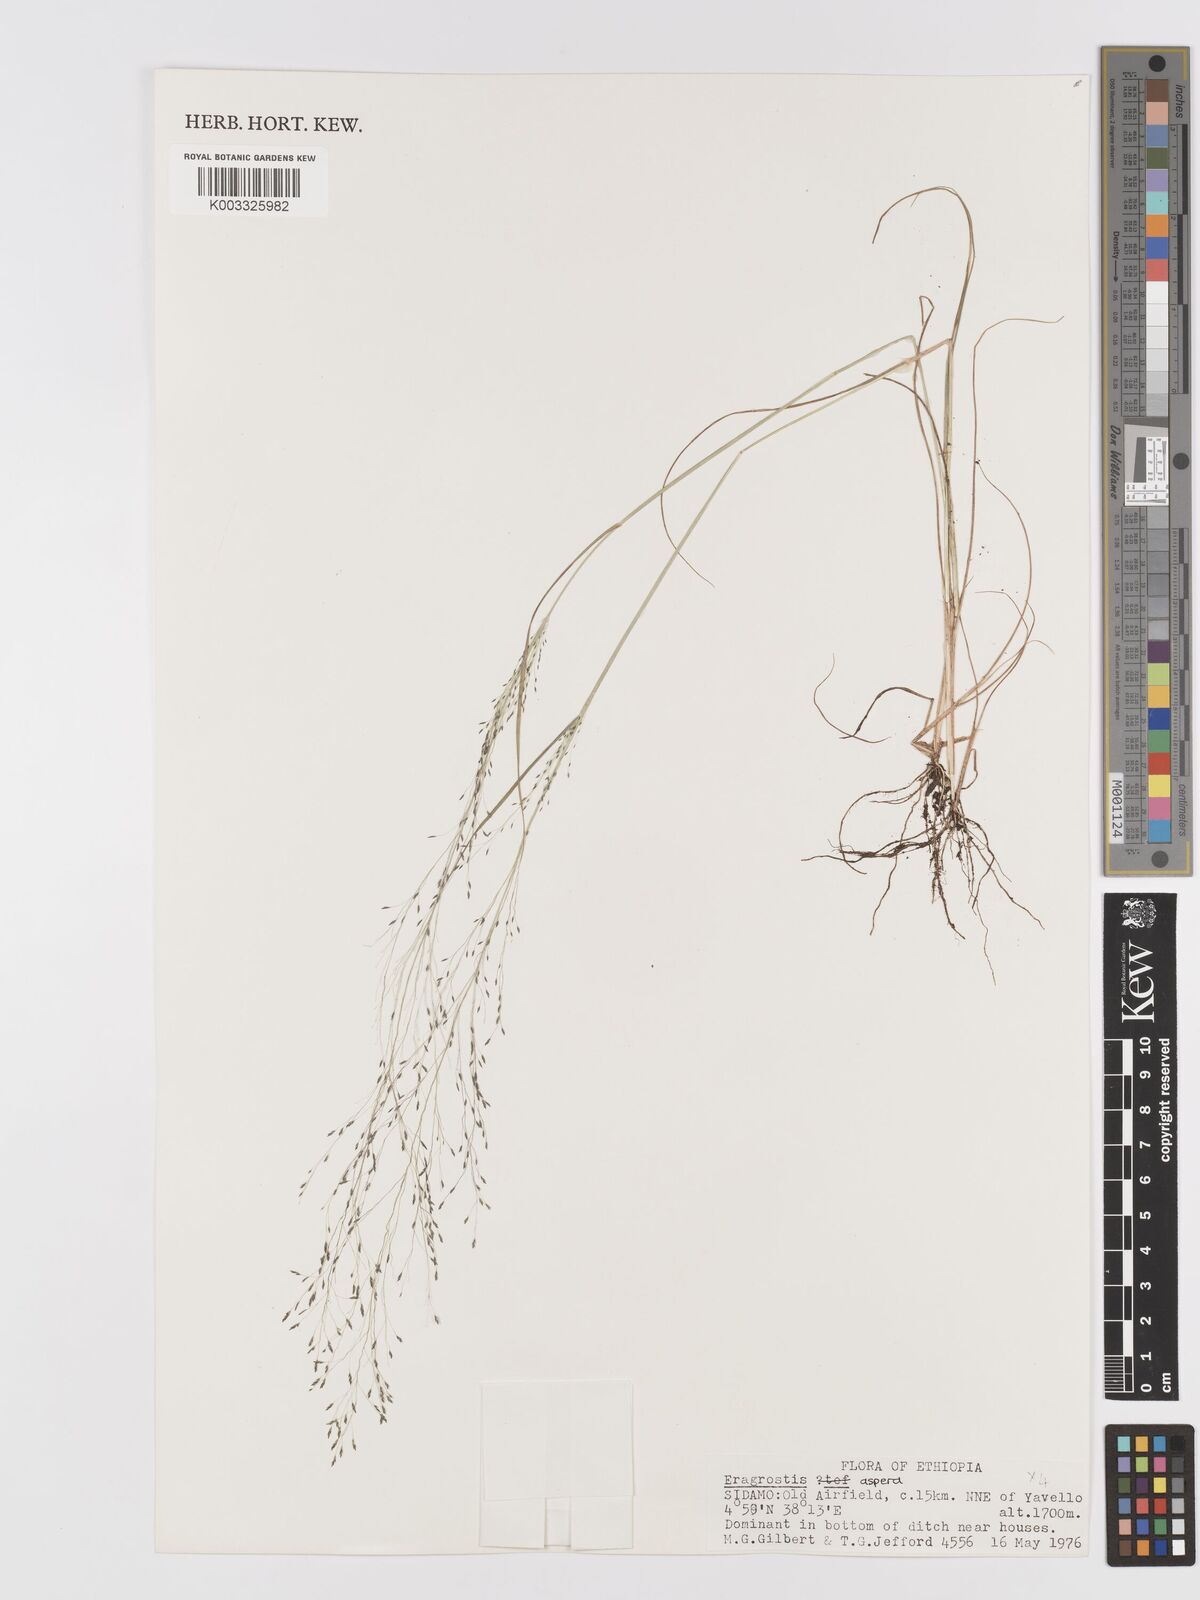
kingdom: Plantae
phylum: Tracheophyta
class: Liliopsida
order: Poales
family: Poaceae
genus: Eragrostis
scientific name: Eragrostis aspera
